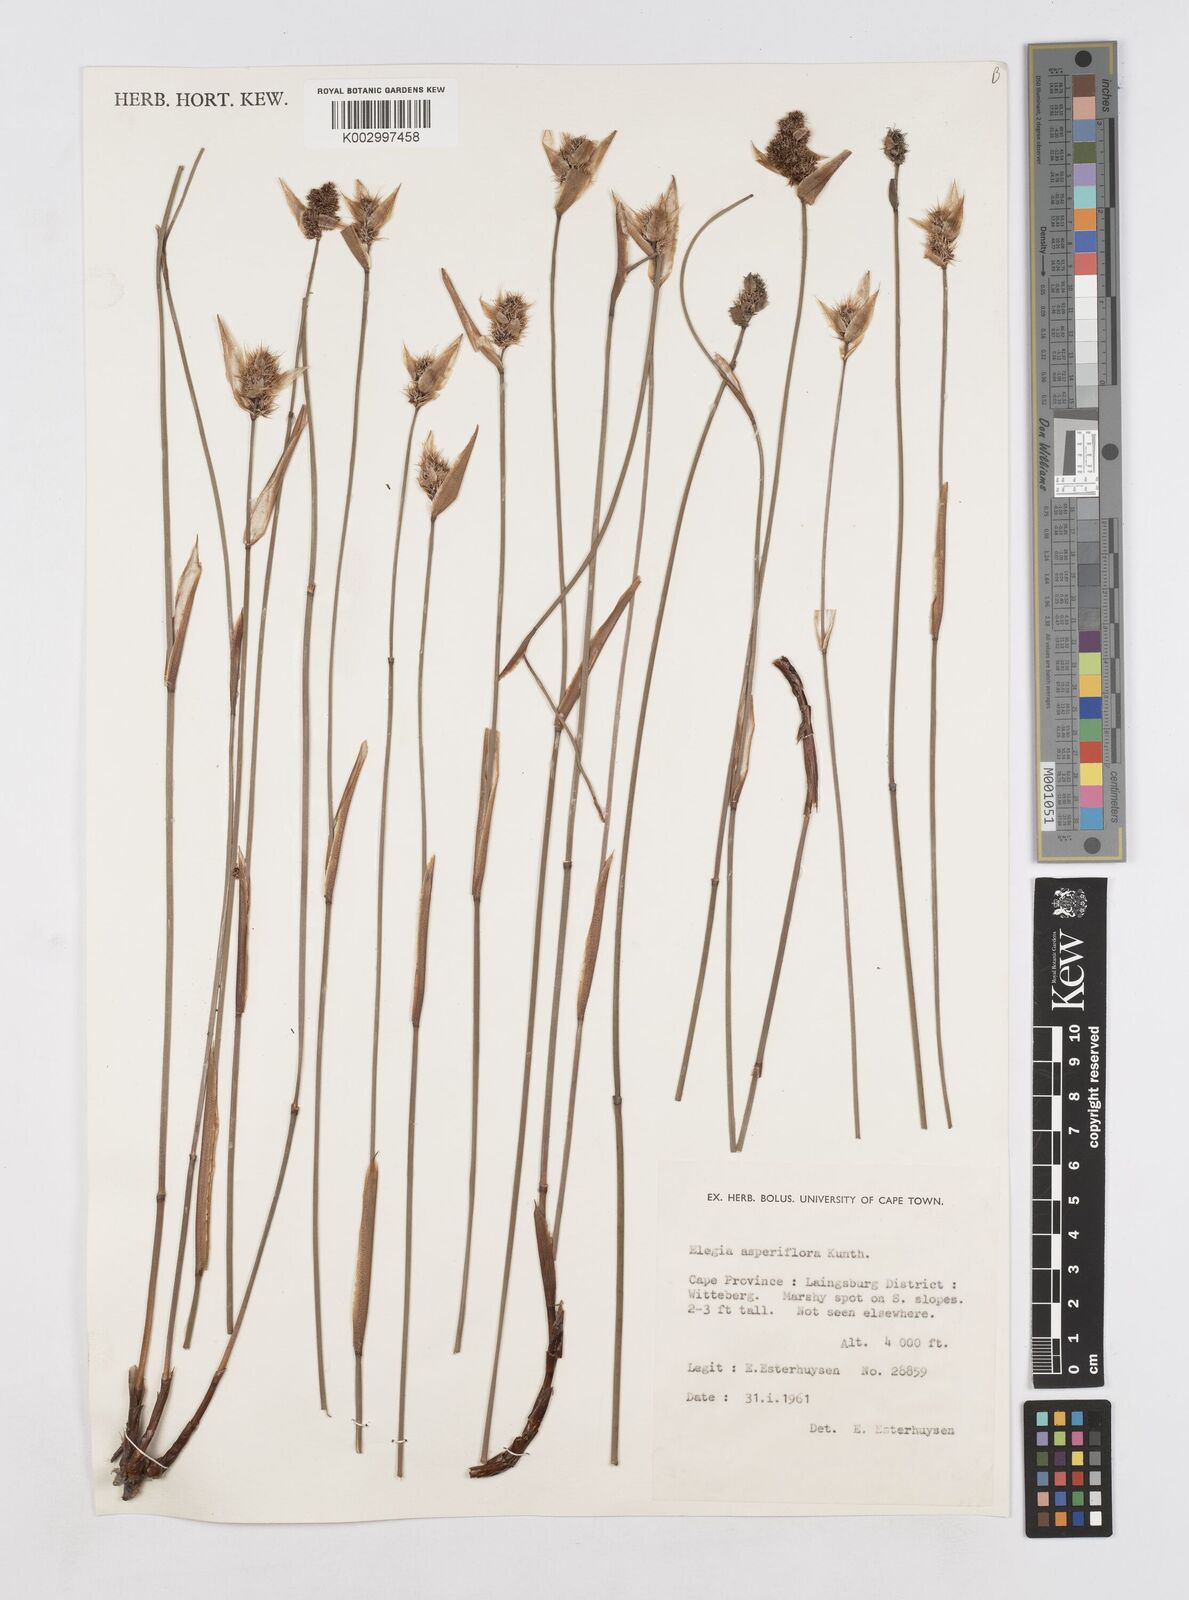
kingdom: Plantae
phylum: Tracheophyta
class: Liliopsida
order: Poales
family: Restionaceae
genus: Elegia
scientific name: Elegia asperiflora
